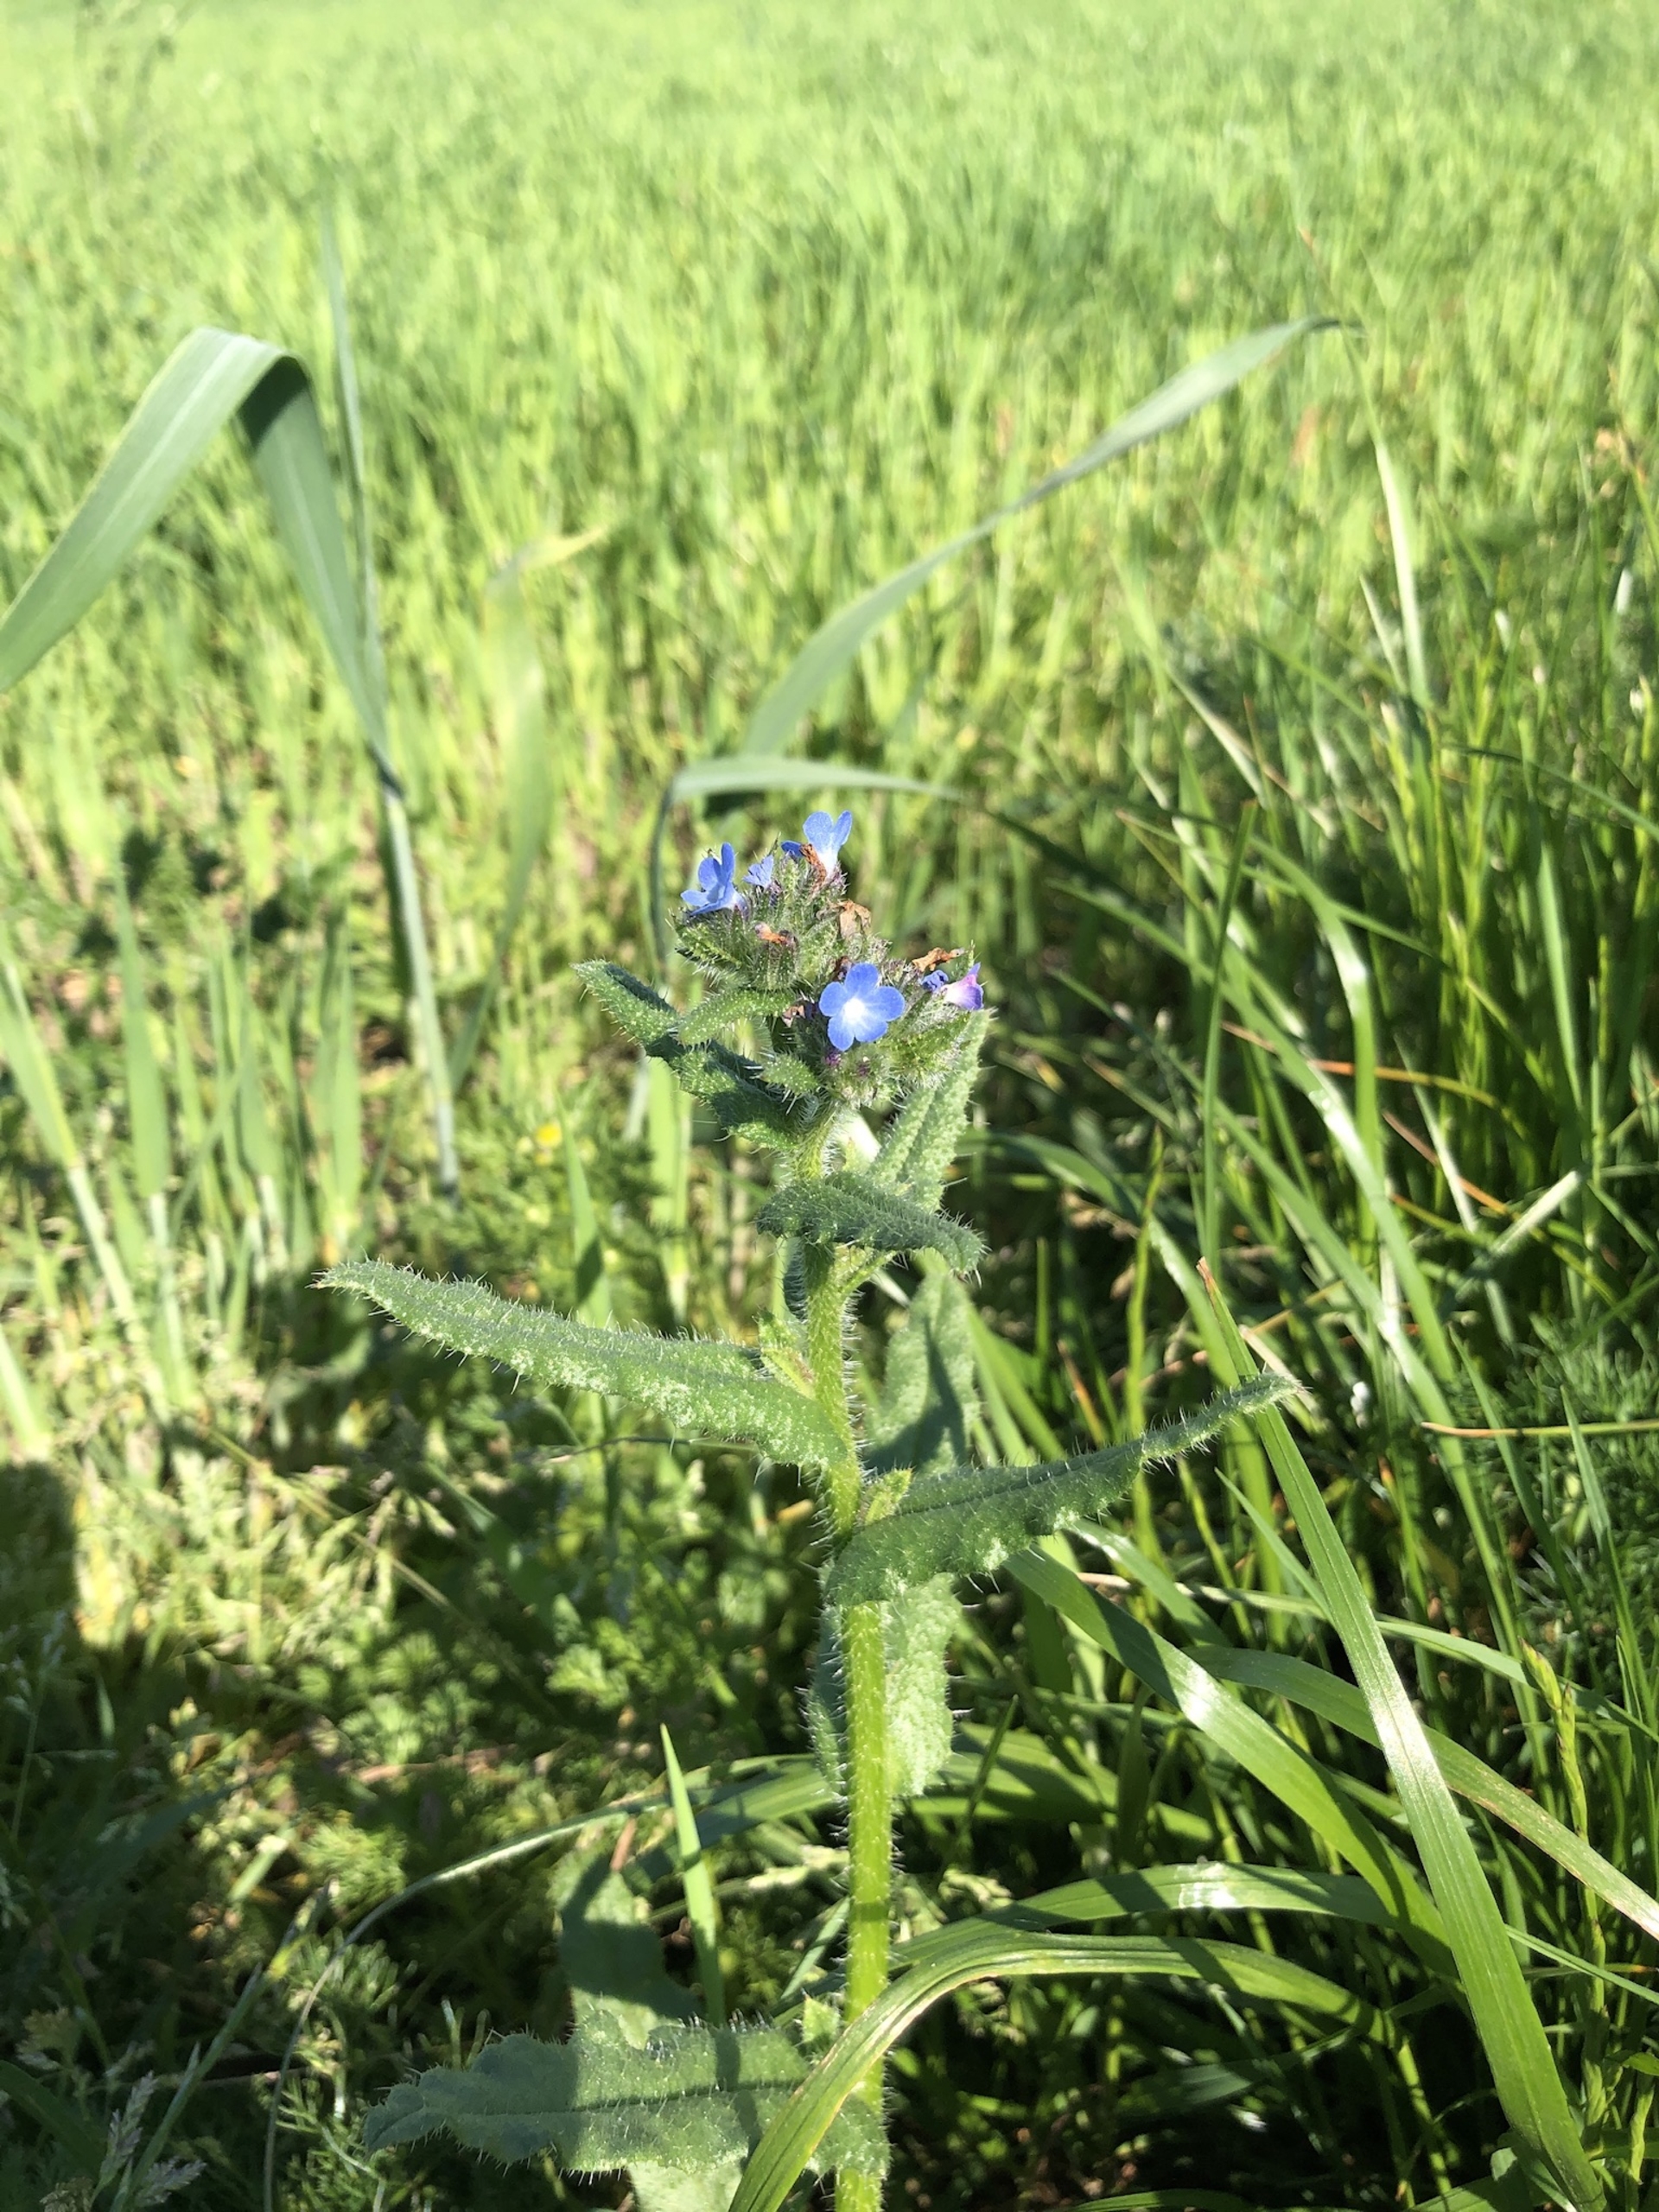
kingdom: Plantae
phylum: Tracheophyta
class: Magnoliopsida
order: Boraginales
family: Boraginaceae
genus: Lycopsis
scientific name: Lycopsis arvensis
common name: Krumhals
